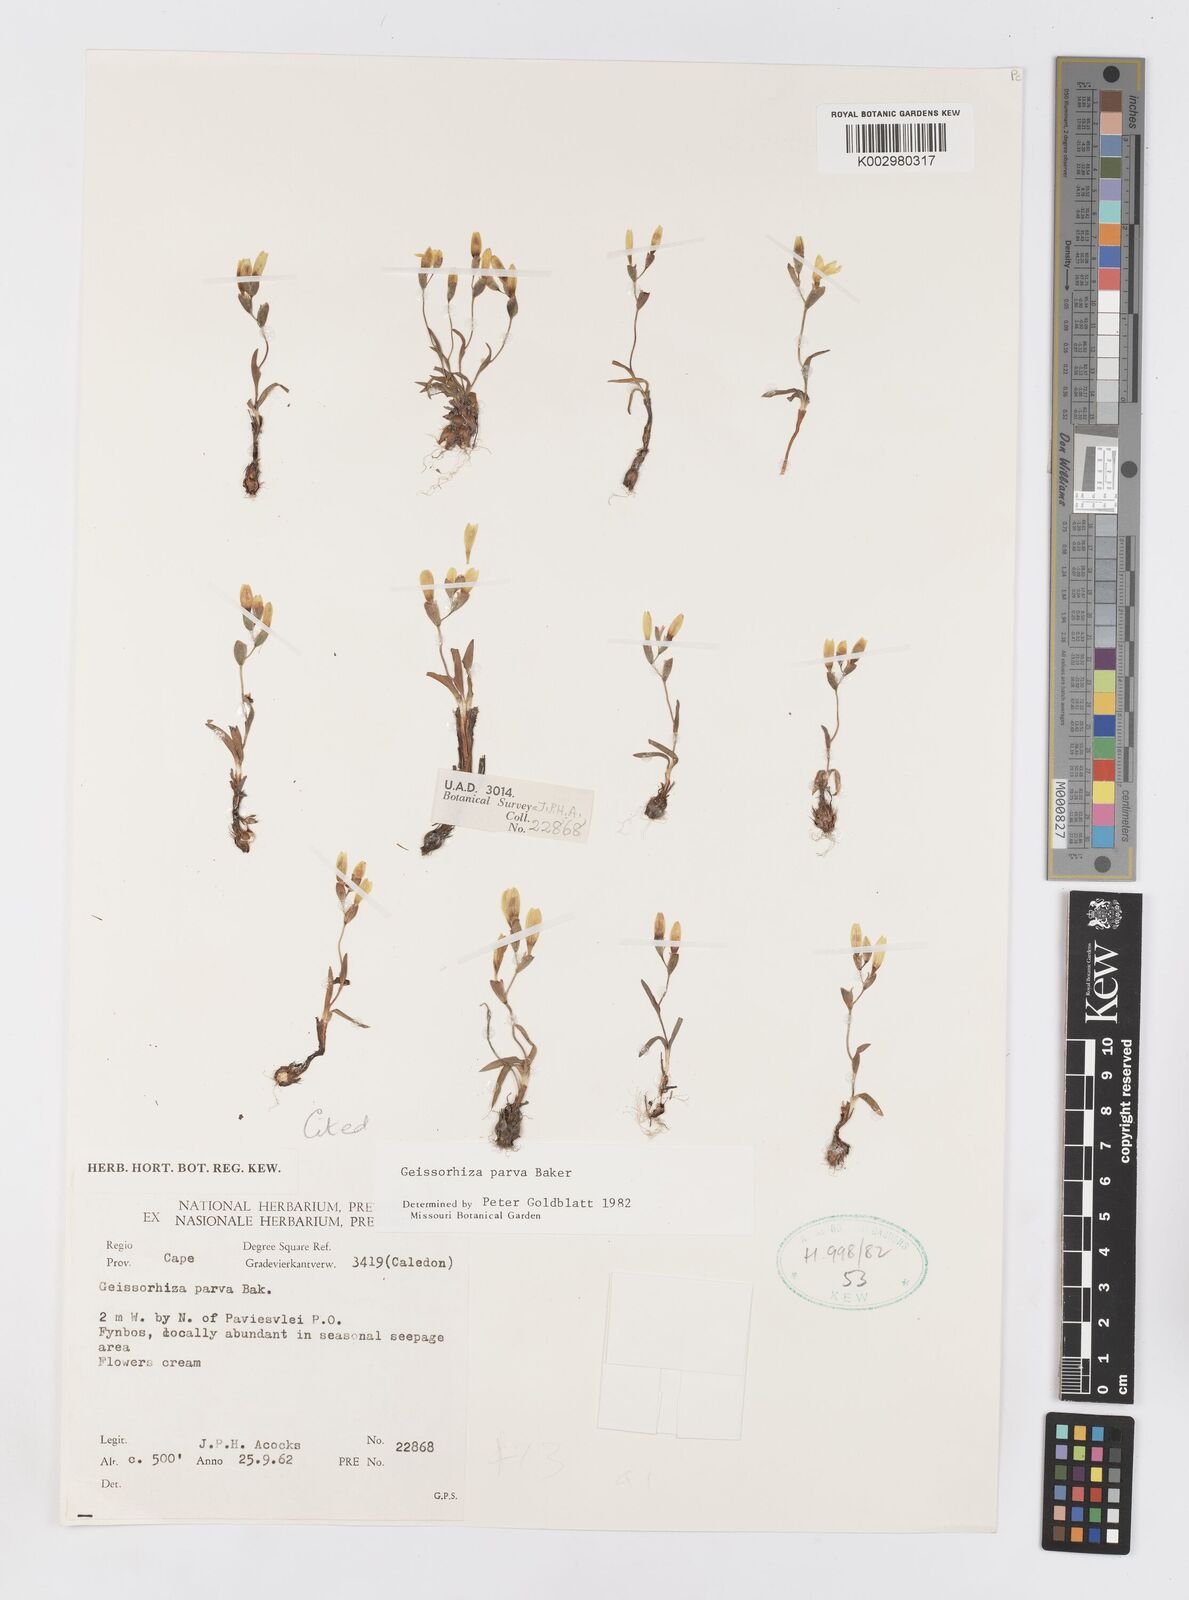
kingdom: Plantae
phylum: Tracheophyta
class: Liliopsida
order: Asparagales
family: Iridaceae
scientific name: Iridaceae
